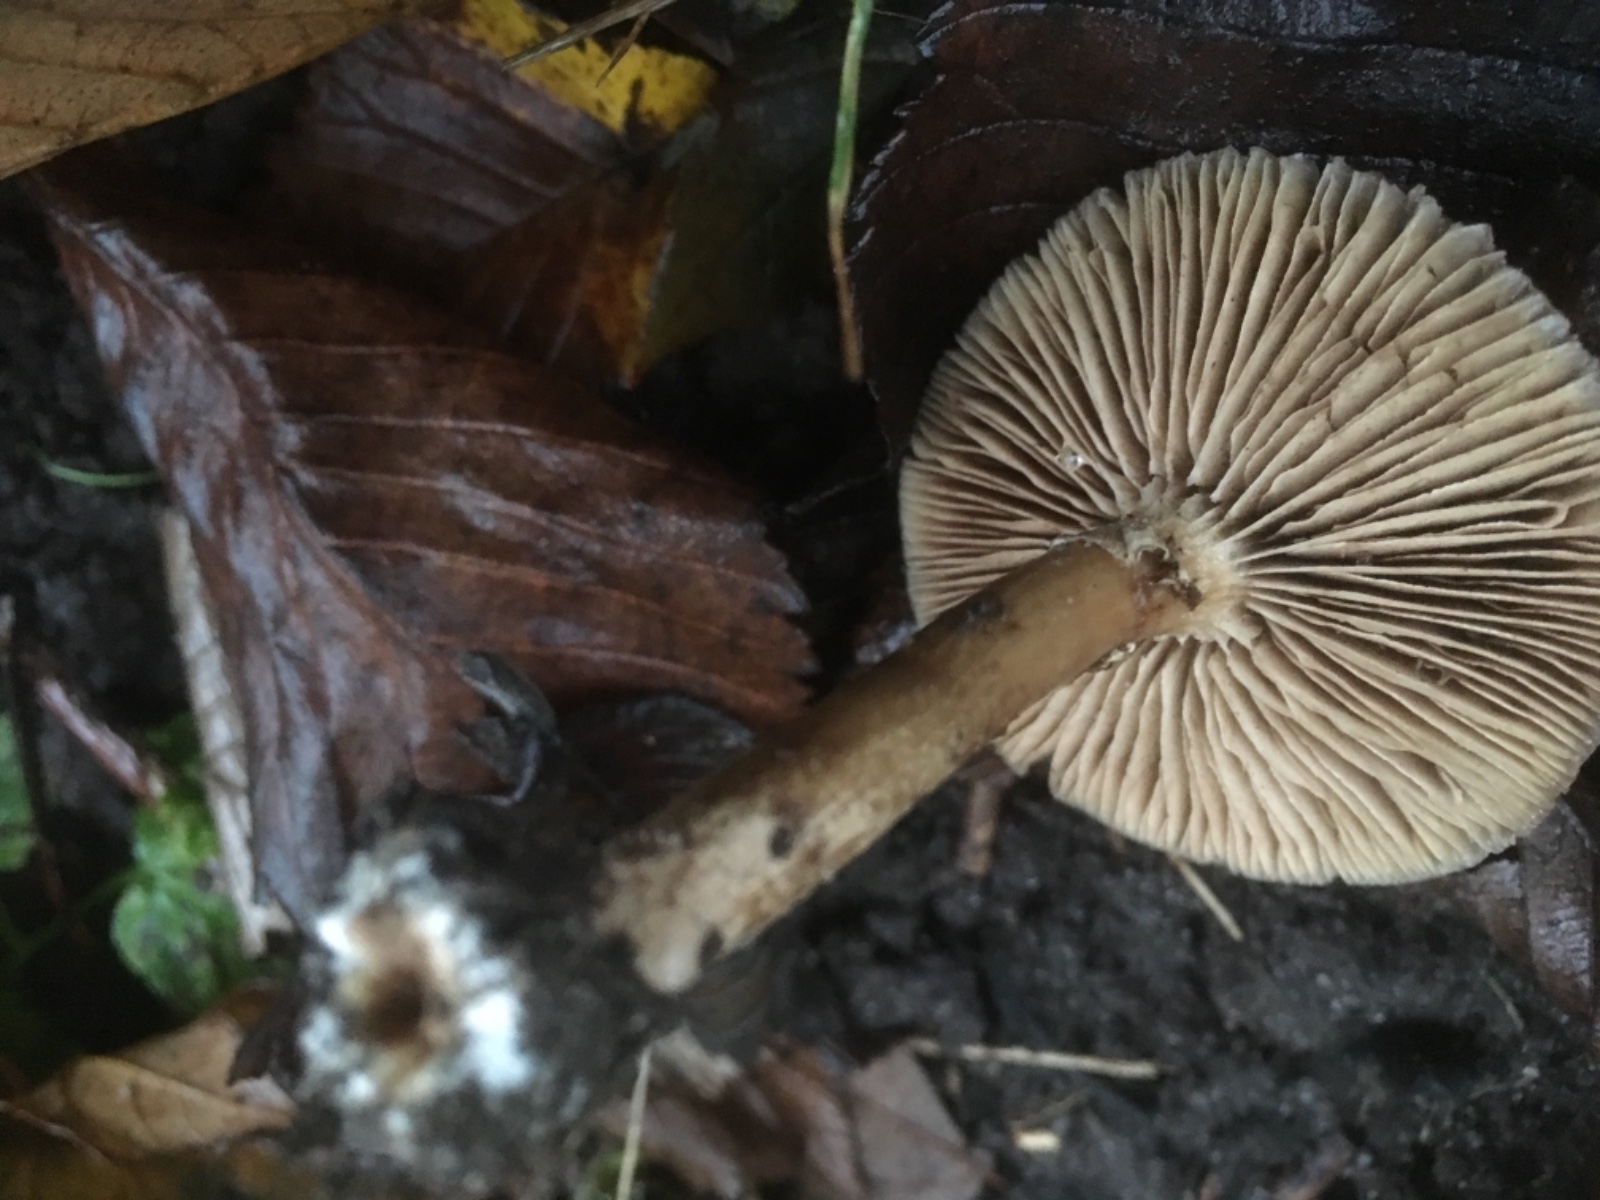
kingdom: Fungi
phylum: Basidiomycota
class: Agaricomycetes
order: Agaricales
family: Tubariaceae
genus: Cyclocybe
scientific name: Cyclocybe erebia
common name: mørk agerhat
